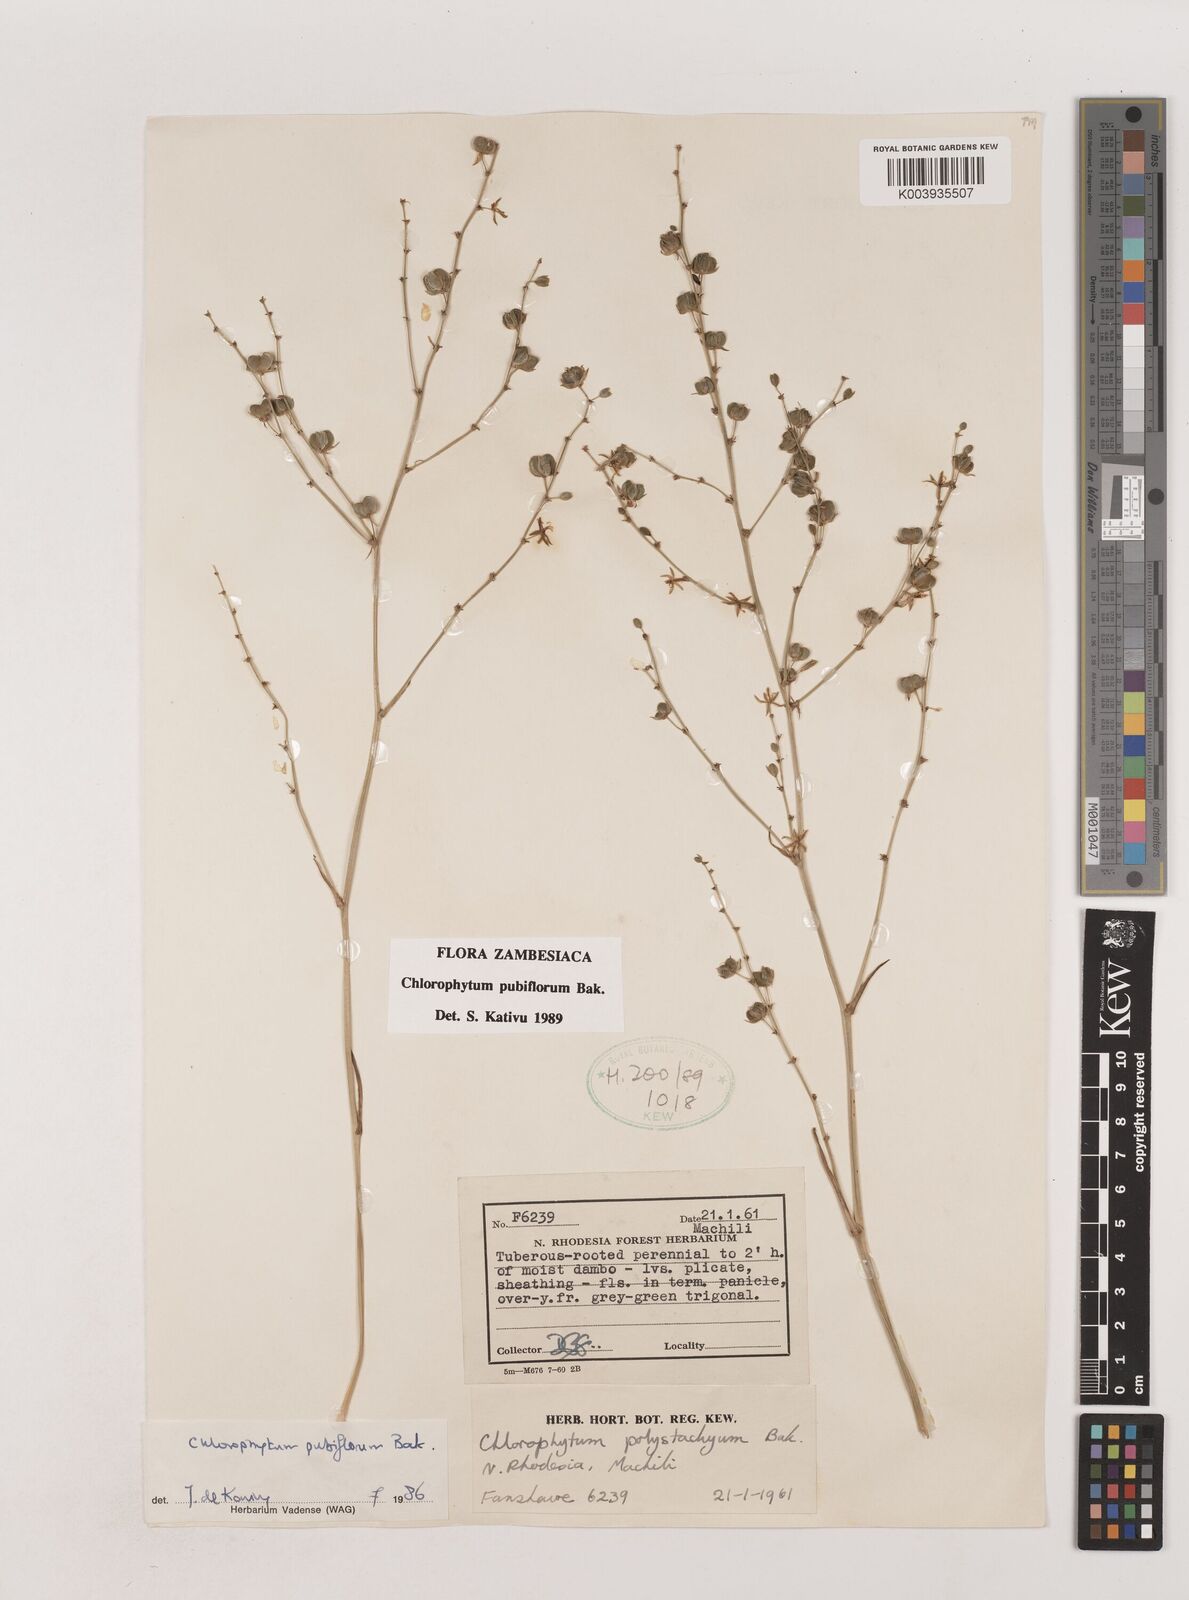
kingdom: Plantae
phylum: Tracheophyta
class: Liliopsida
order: Asparagales
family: Asparagaceae
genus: Chlorophytum
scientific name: Chlorophytum pubiflorum
